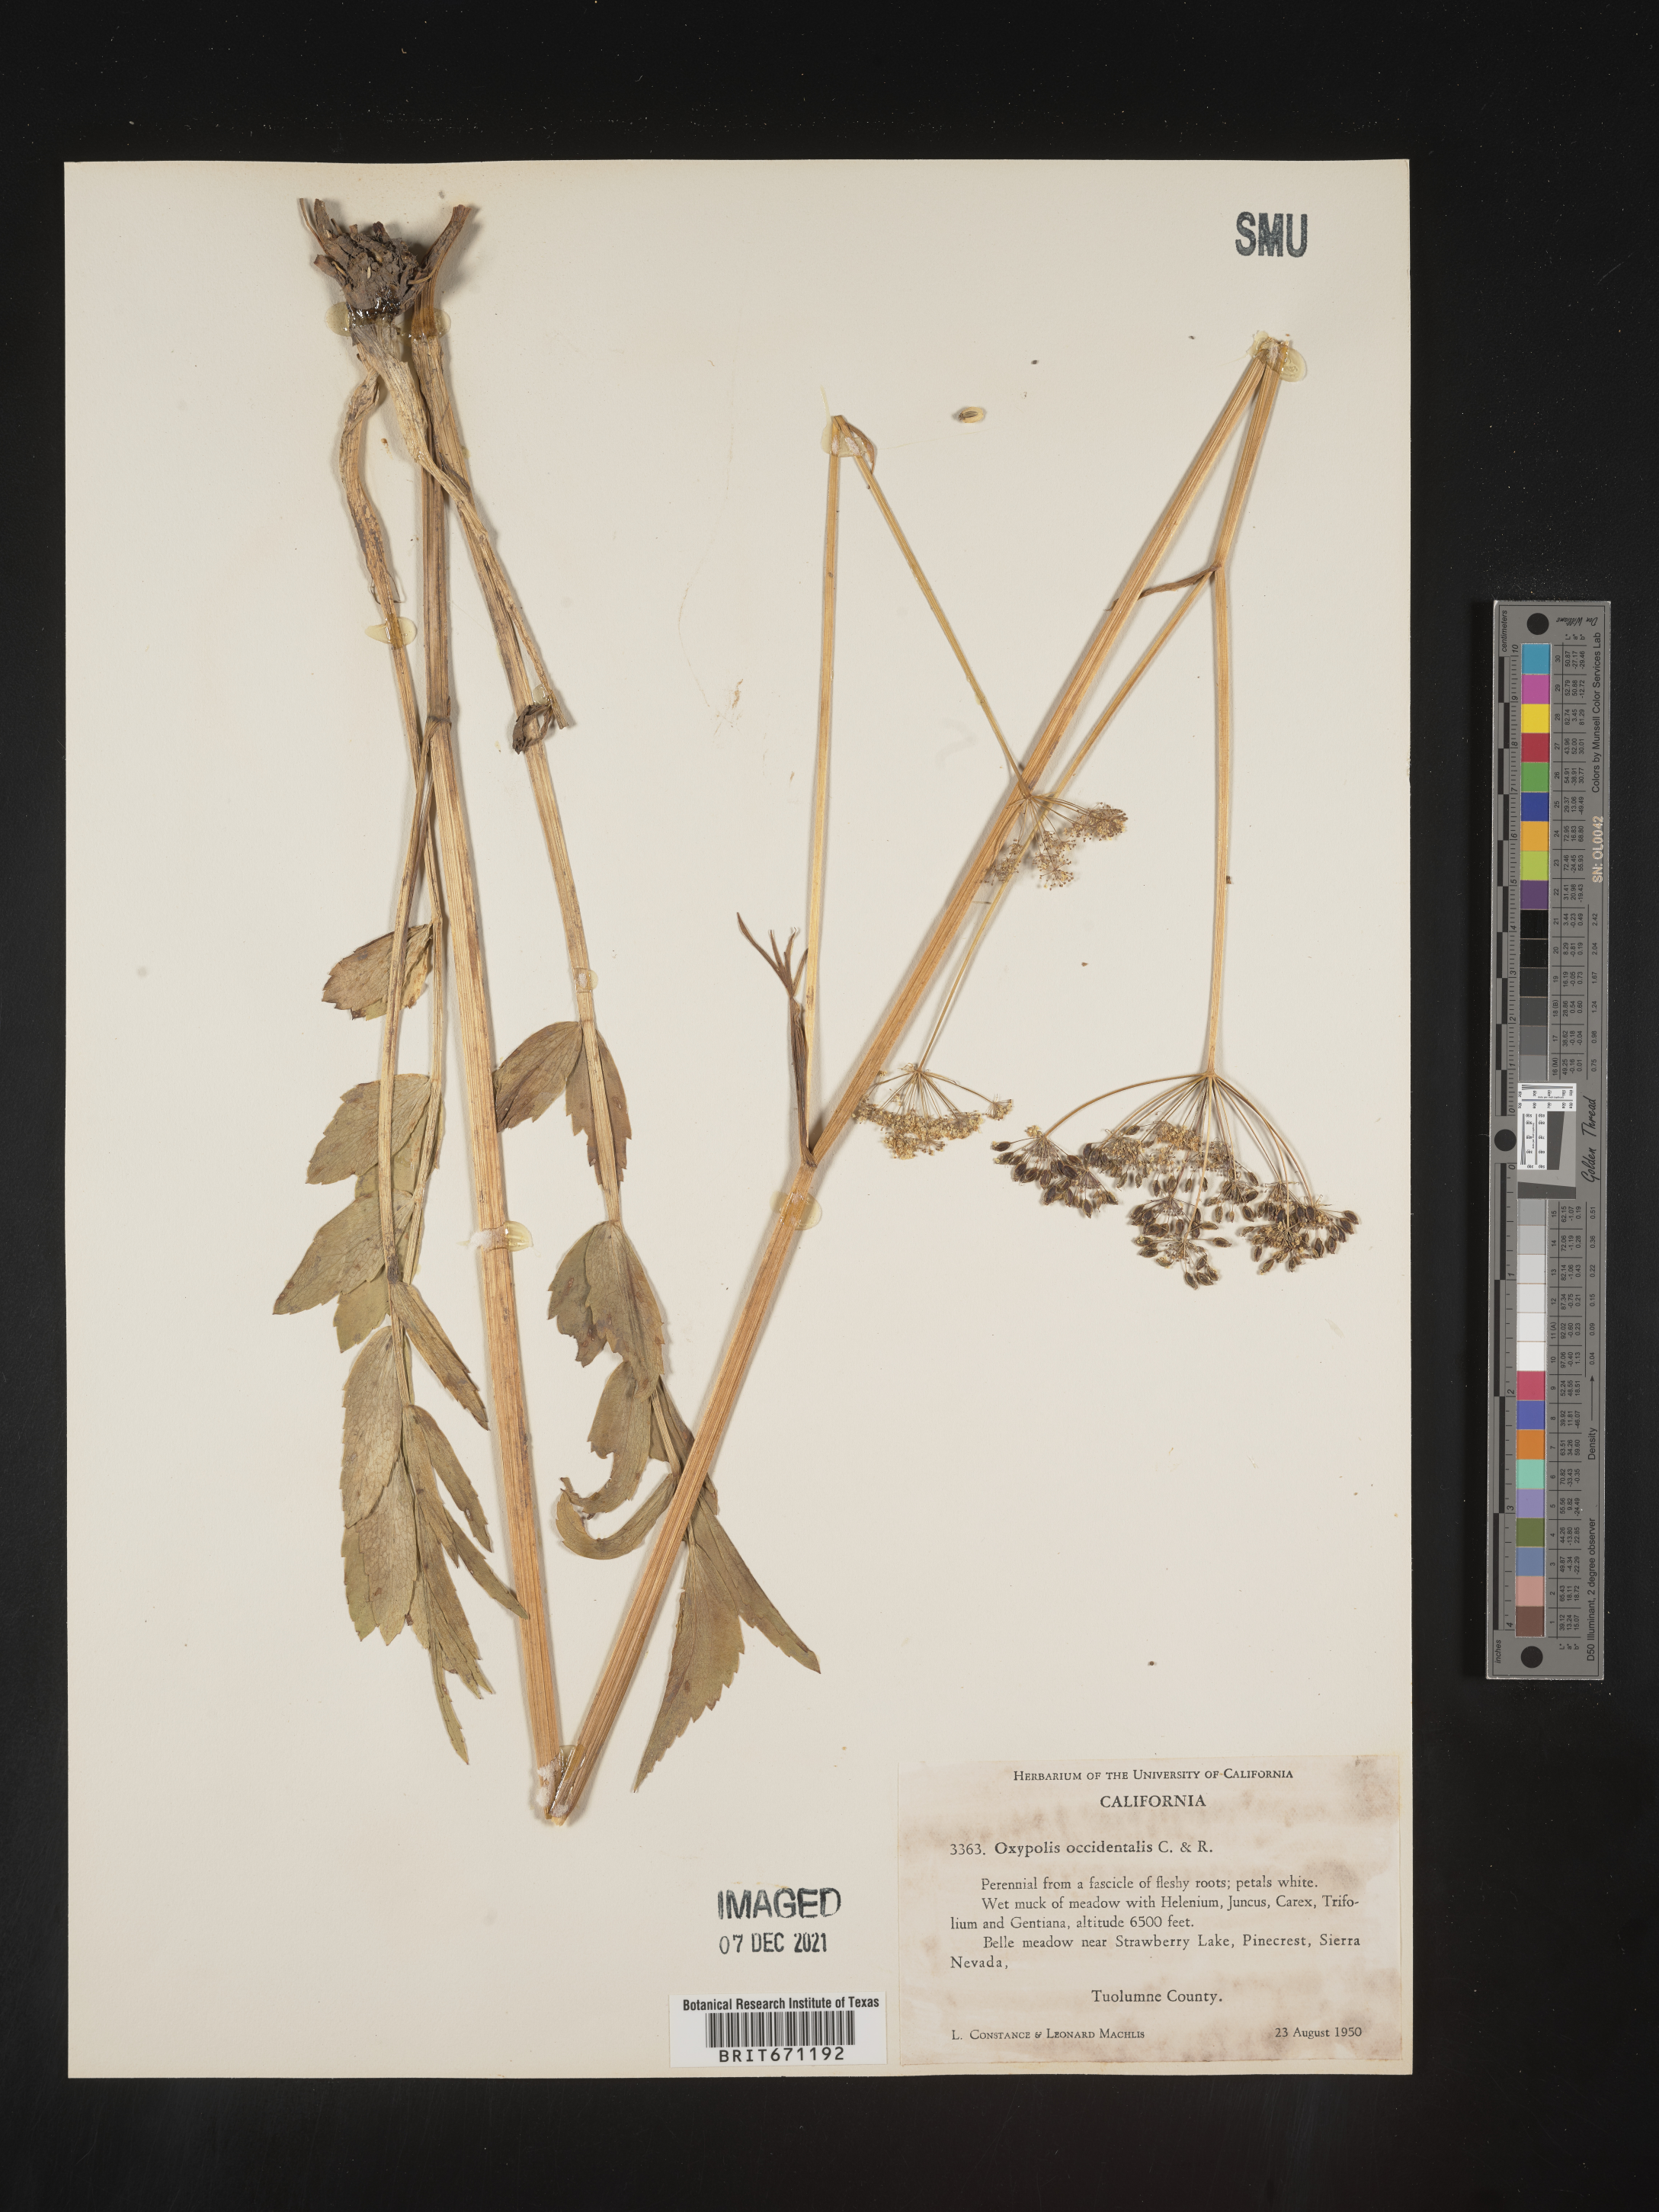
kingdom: Plantae
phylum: Tracheophyta
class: Magnoliopsida
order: Apiales
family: Apiaceae
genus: Oxypolis
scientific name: Oxypolis occidentalis
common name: Western cowbane
